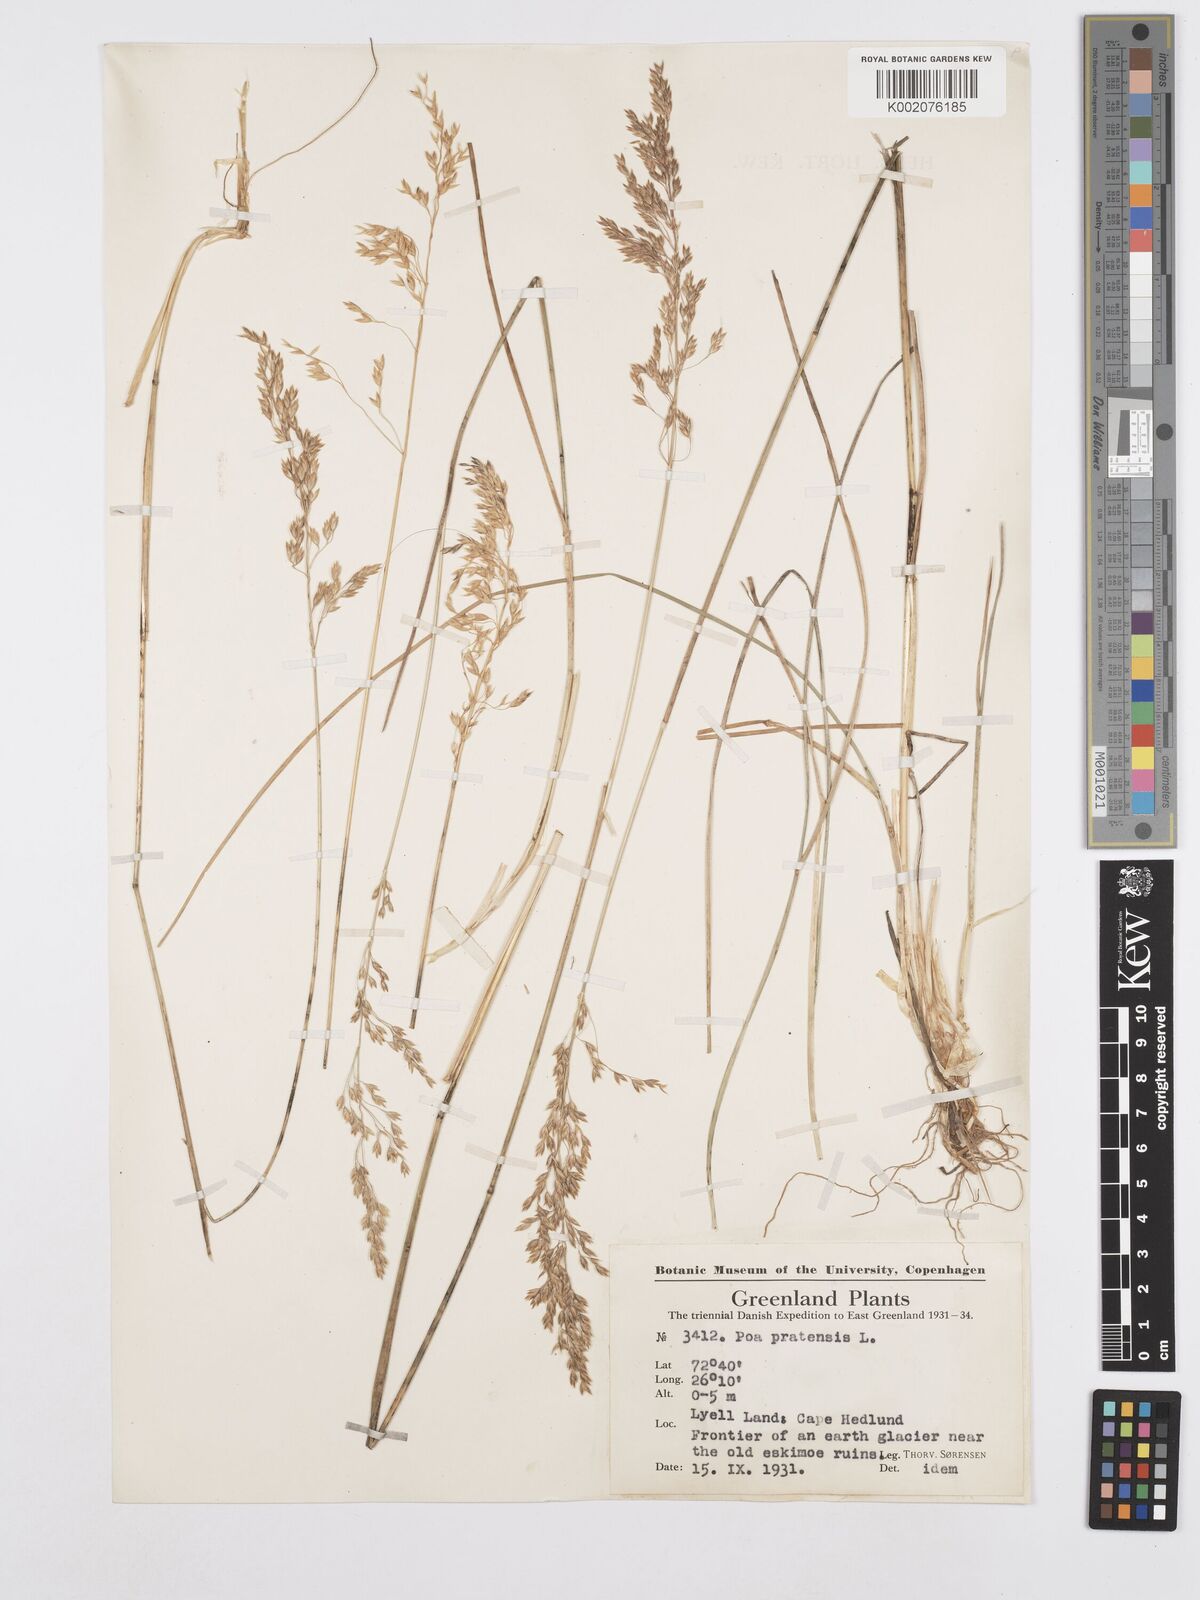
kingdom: Plantae
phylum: Tracheophyta
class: Liliopsida
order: Poales
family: Poaceae
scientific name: Poaceae
